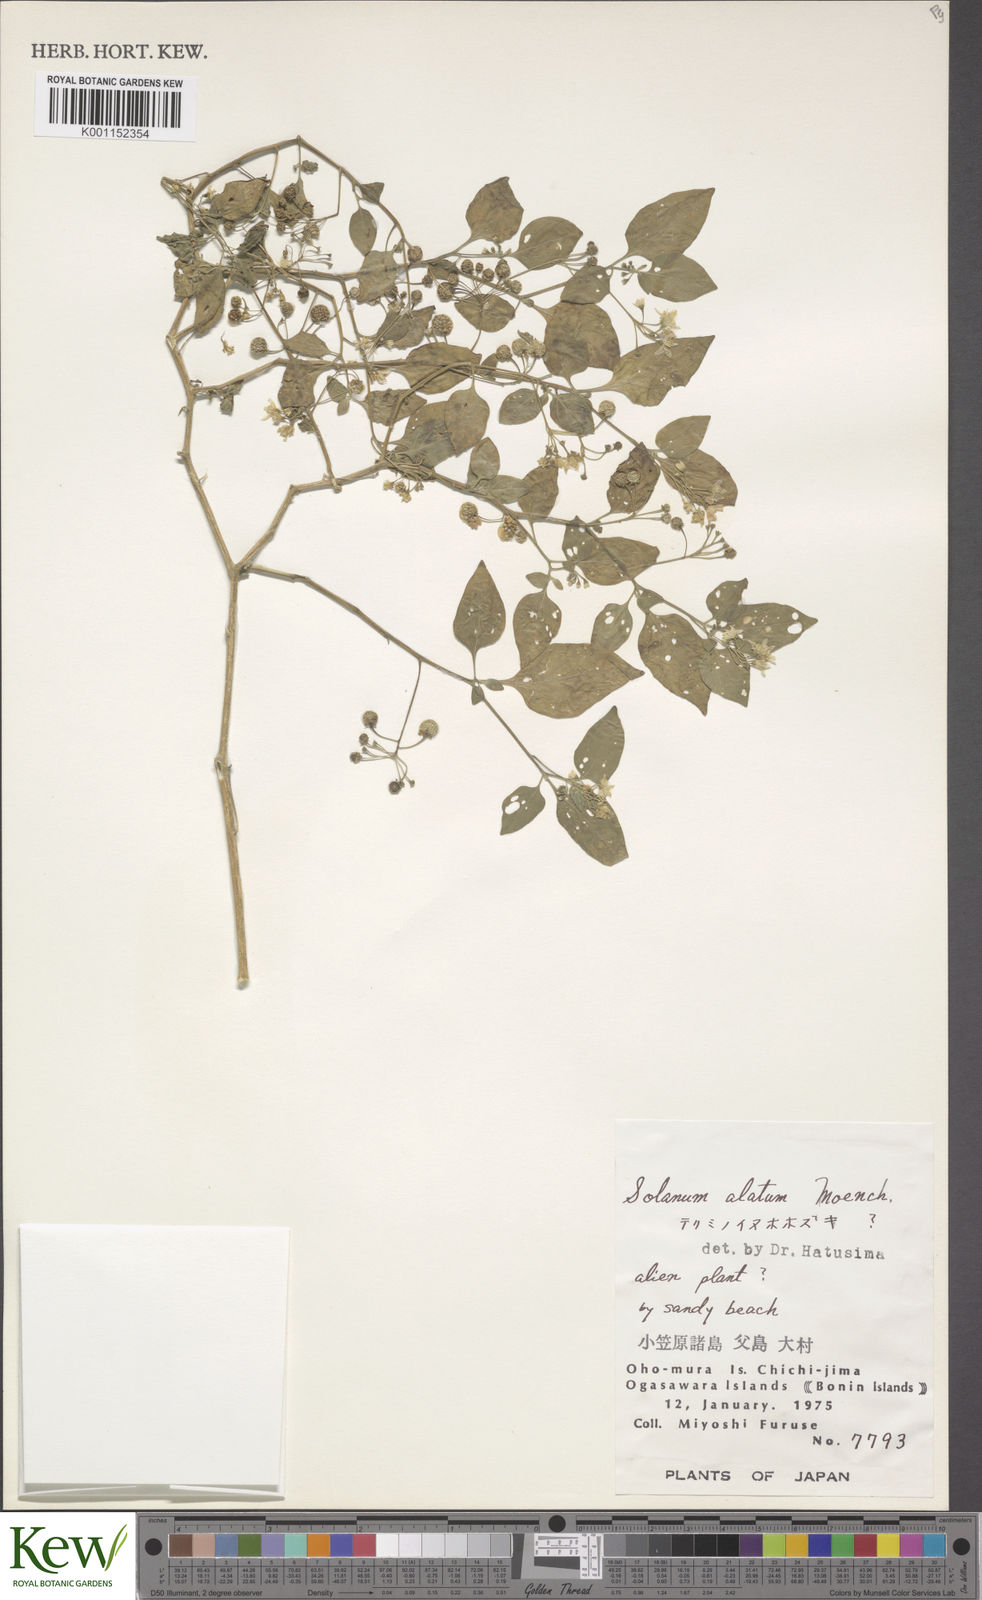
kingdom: Plantae
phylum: Tracheophyta
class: Magnoliopsida
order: Solanales
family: Solanaceae
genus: Solanum
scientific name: Solanum americanum
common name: American black nightshade
